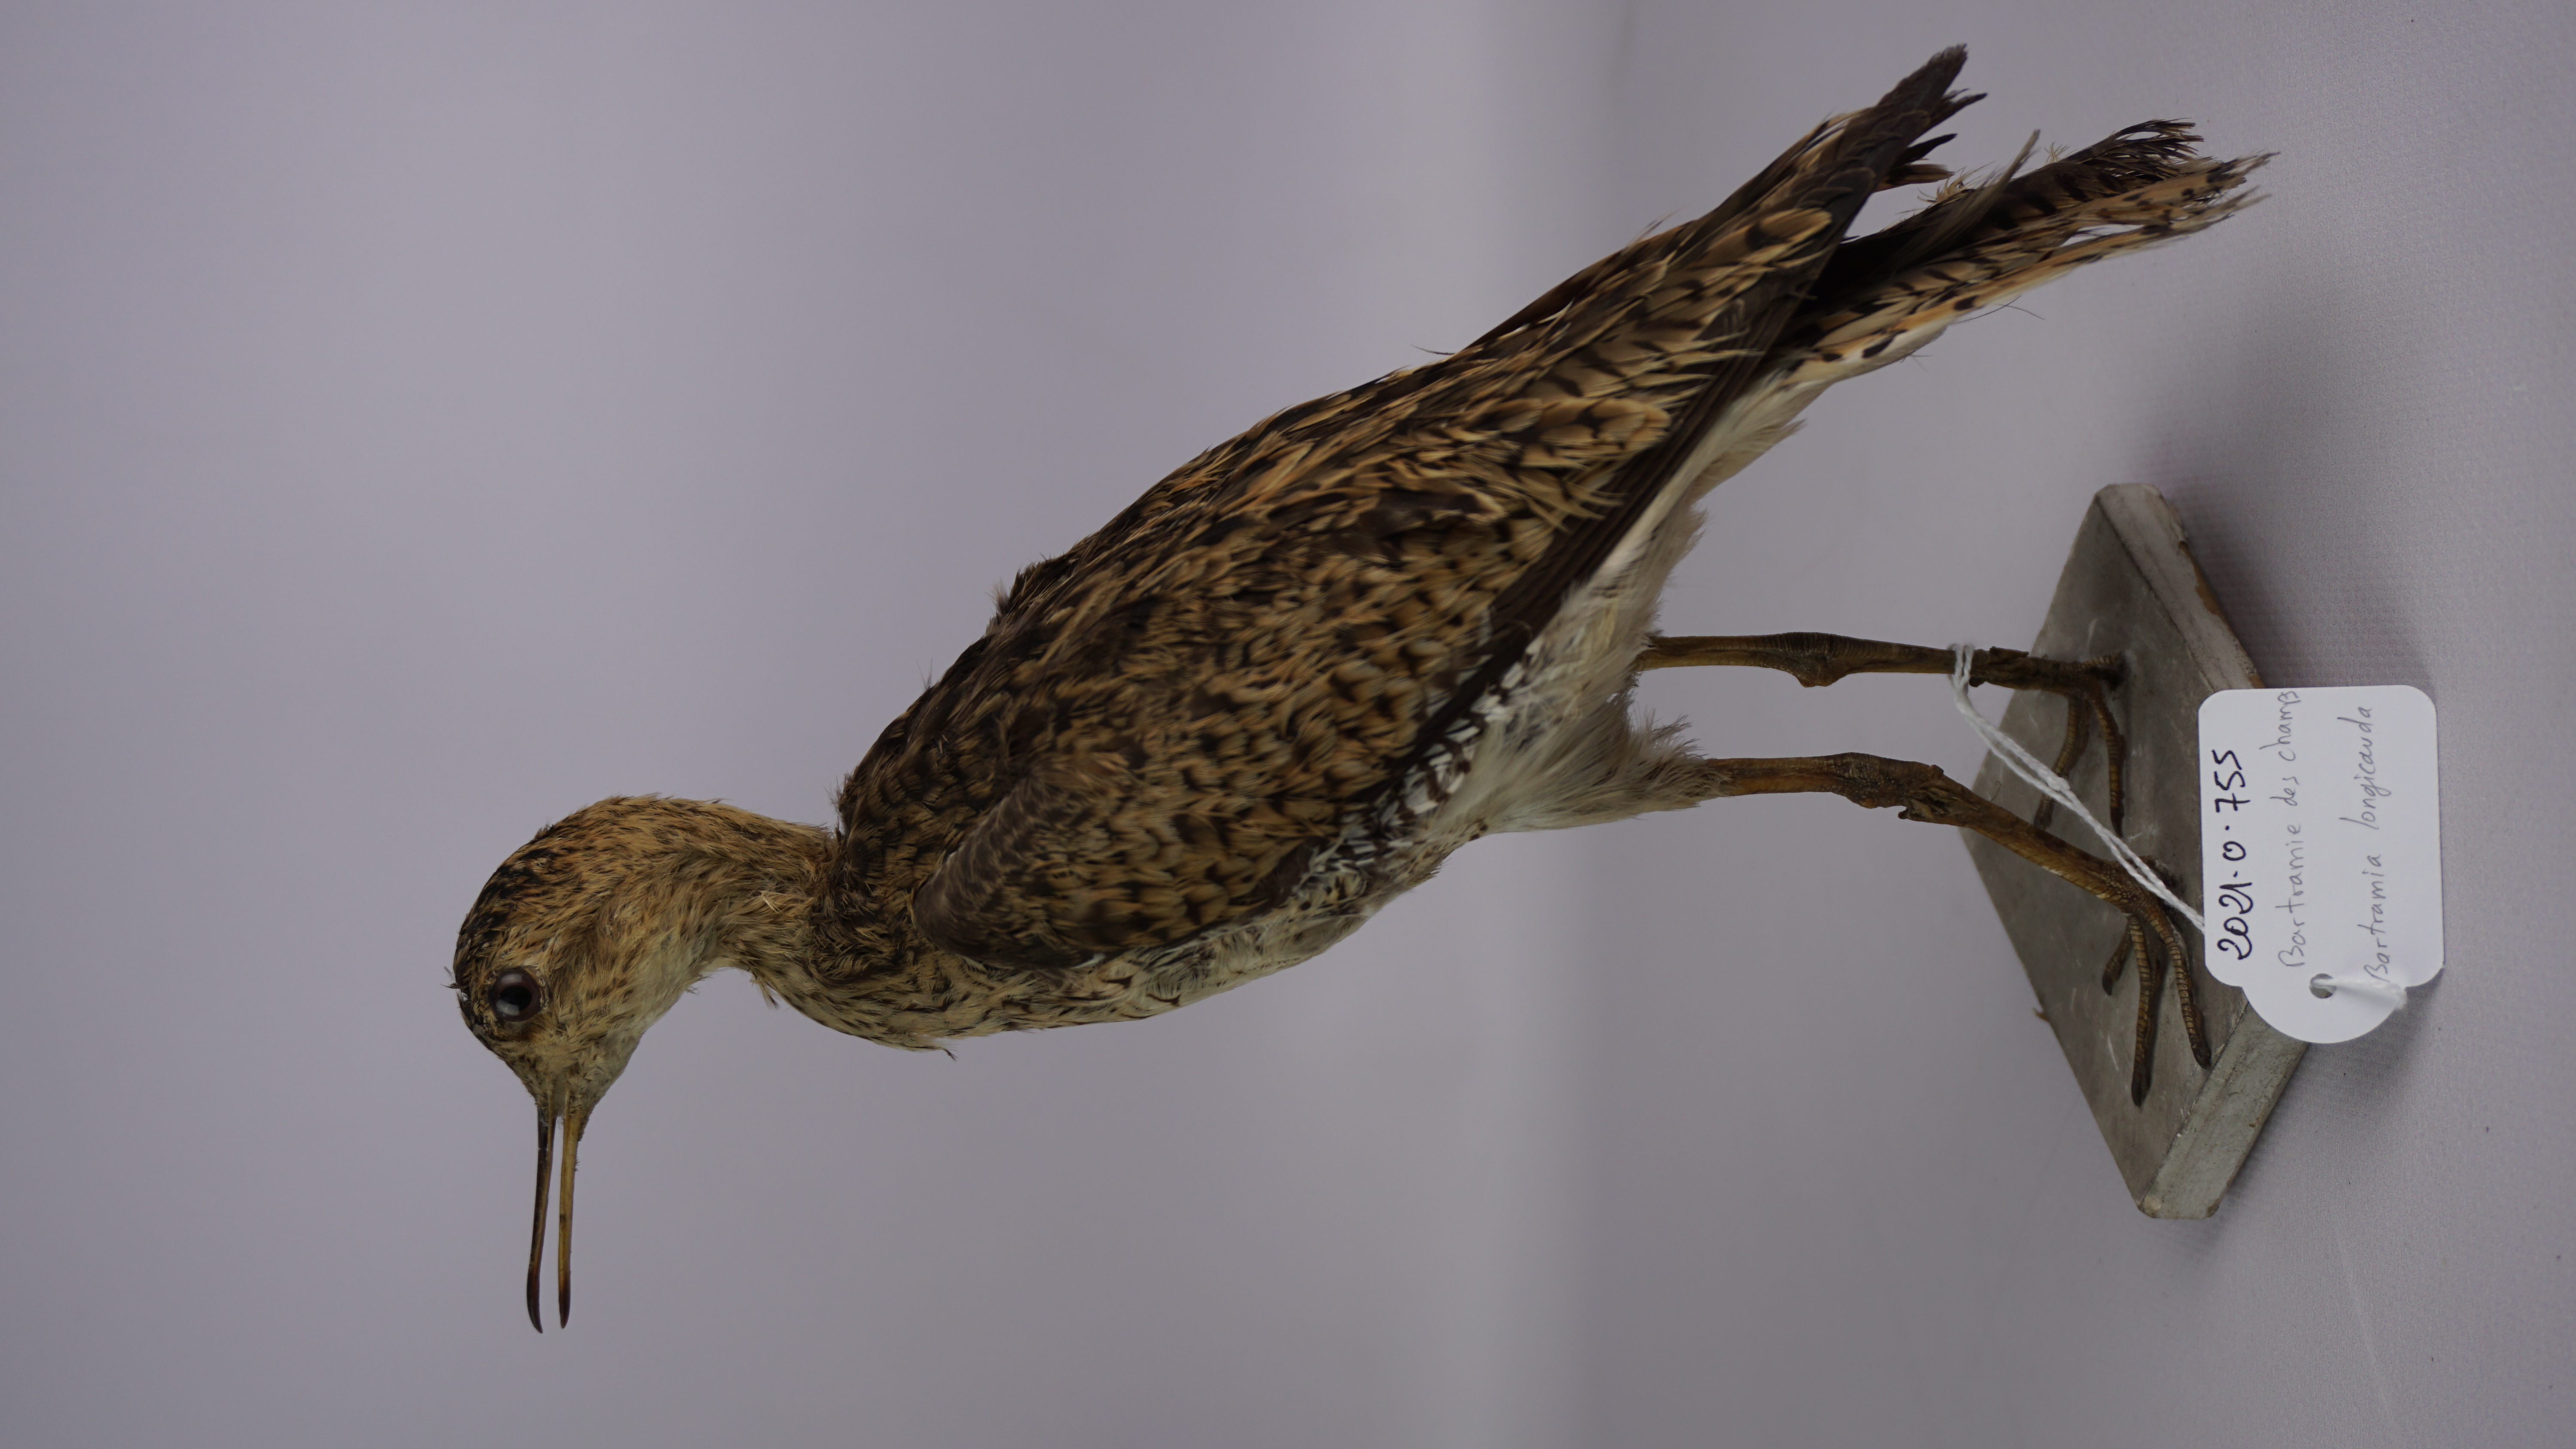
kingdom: Animalia
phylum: Chordata
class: Aves
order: Charadriiformes
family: Scolopacidae
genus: Bartramia
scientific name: Bartramia longicauda
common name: Upland sandpiper
